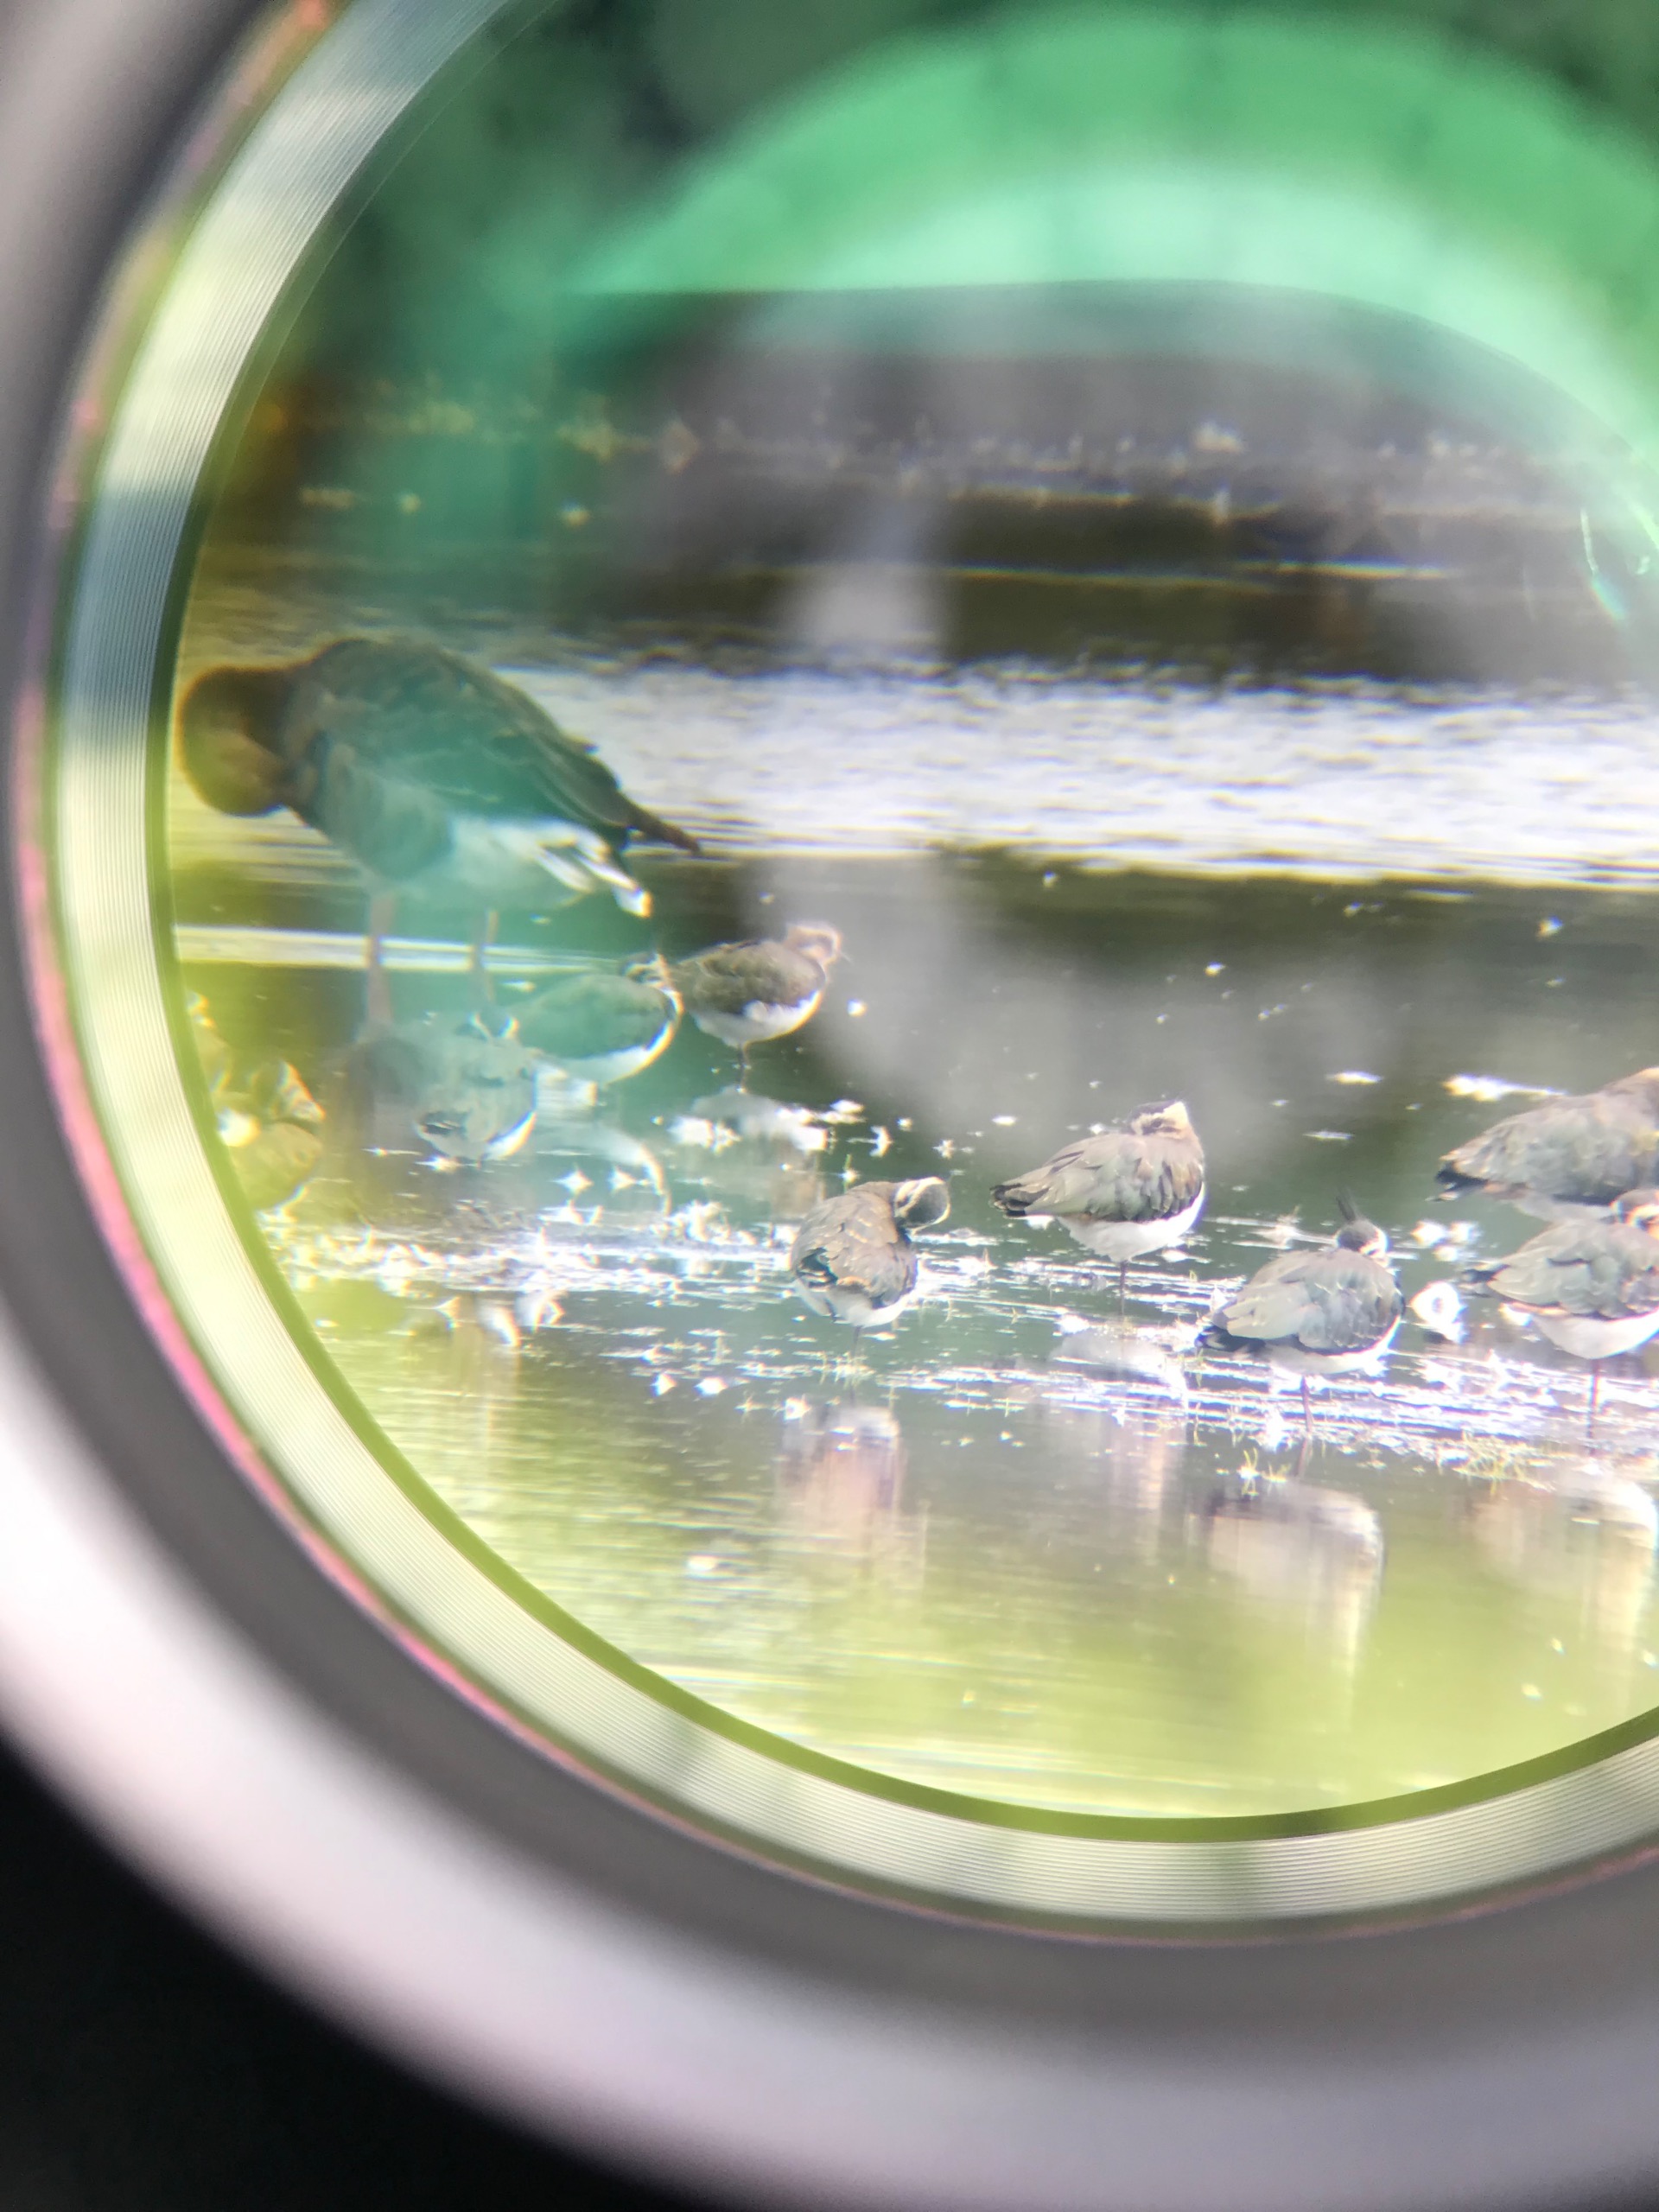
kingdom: Animalia
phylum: Chordata
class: Aves
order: Charadriiformes
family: Charadriidae
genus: Vanellus
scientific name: Vanellus vanellus
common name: Vibe
